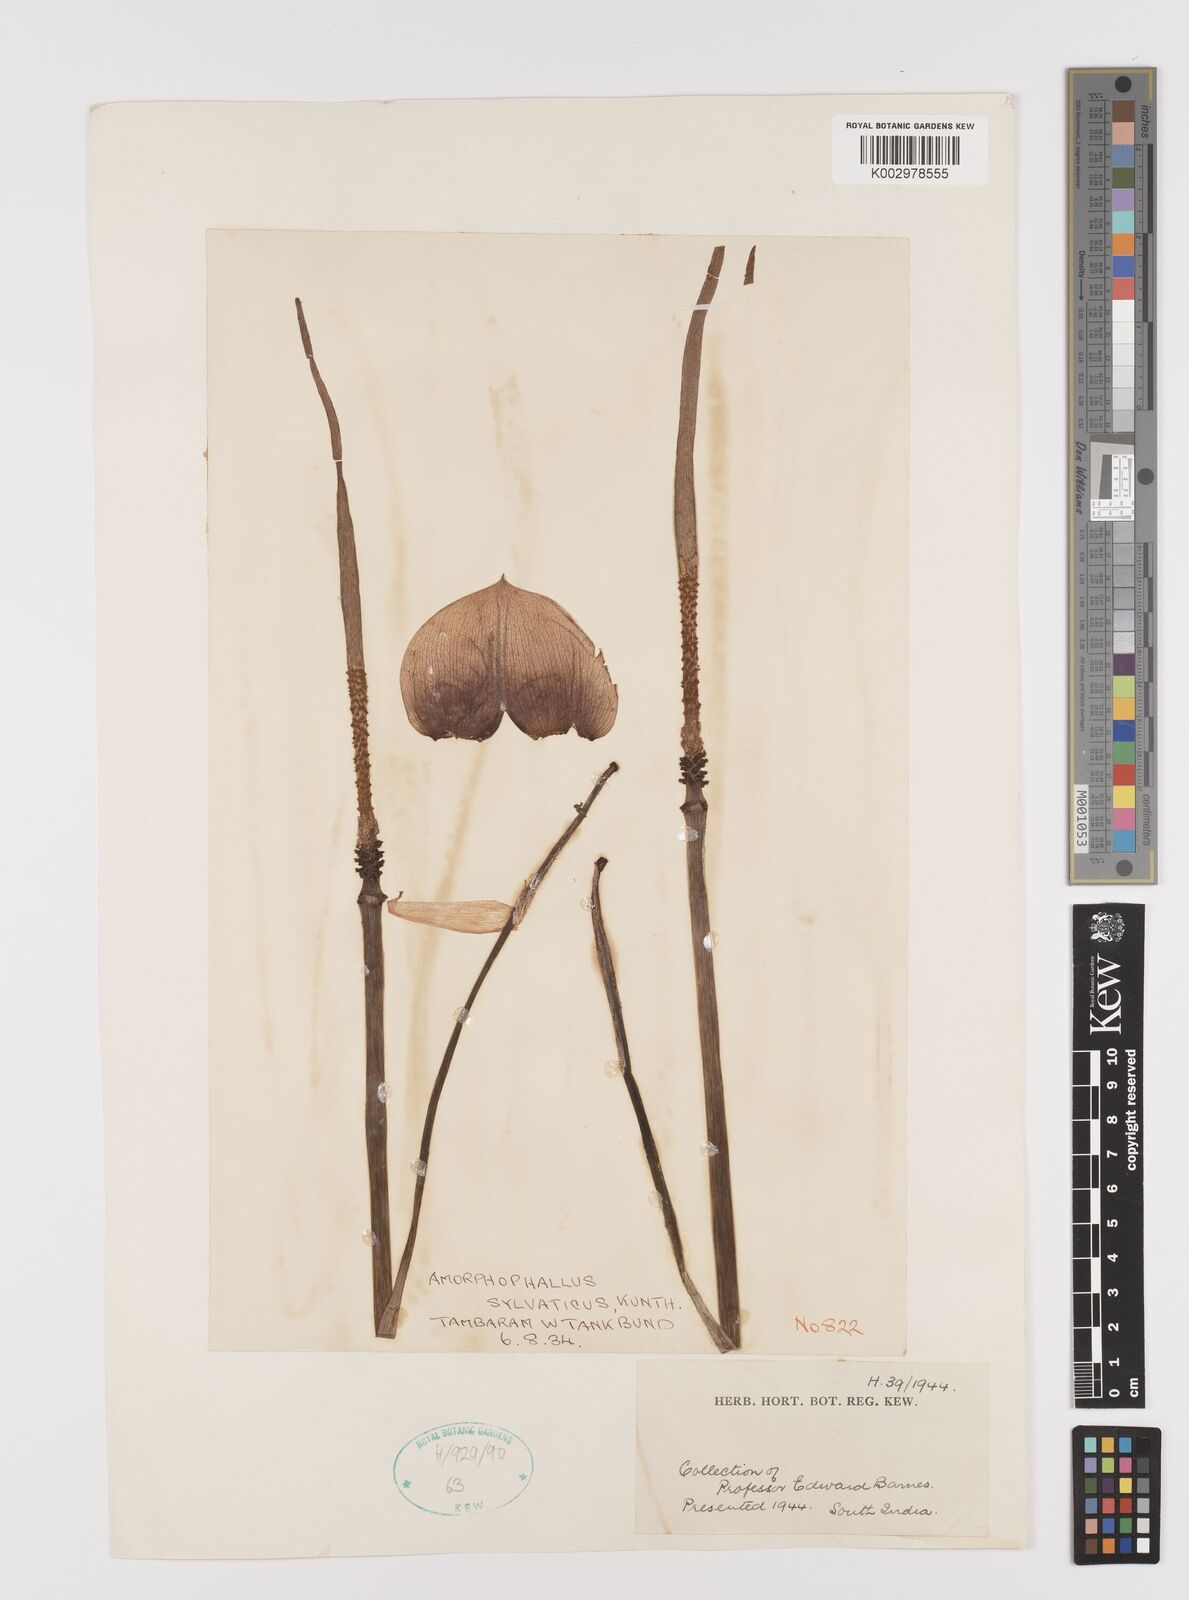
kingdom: Plantae
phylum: Tracheophyta
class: Liliopsida
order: Alismatales
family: Araceae
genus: Amorphophallus
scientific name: Amorphophallus sylvaticus
